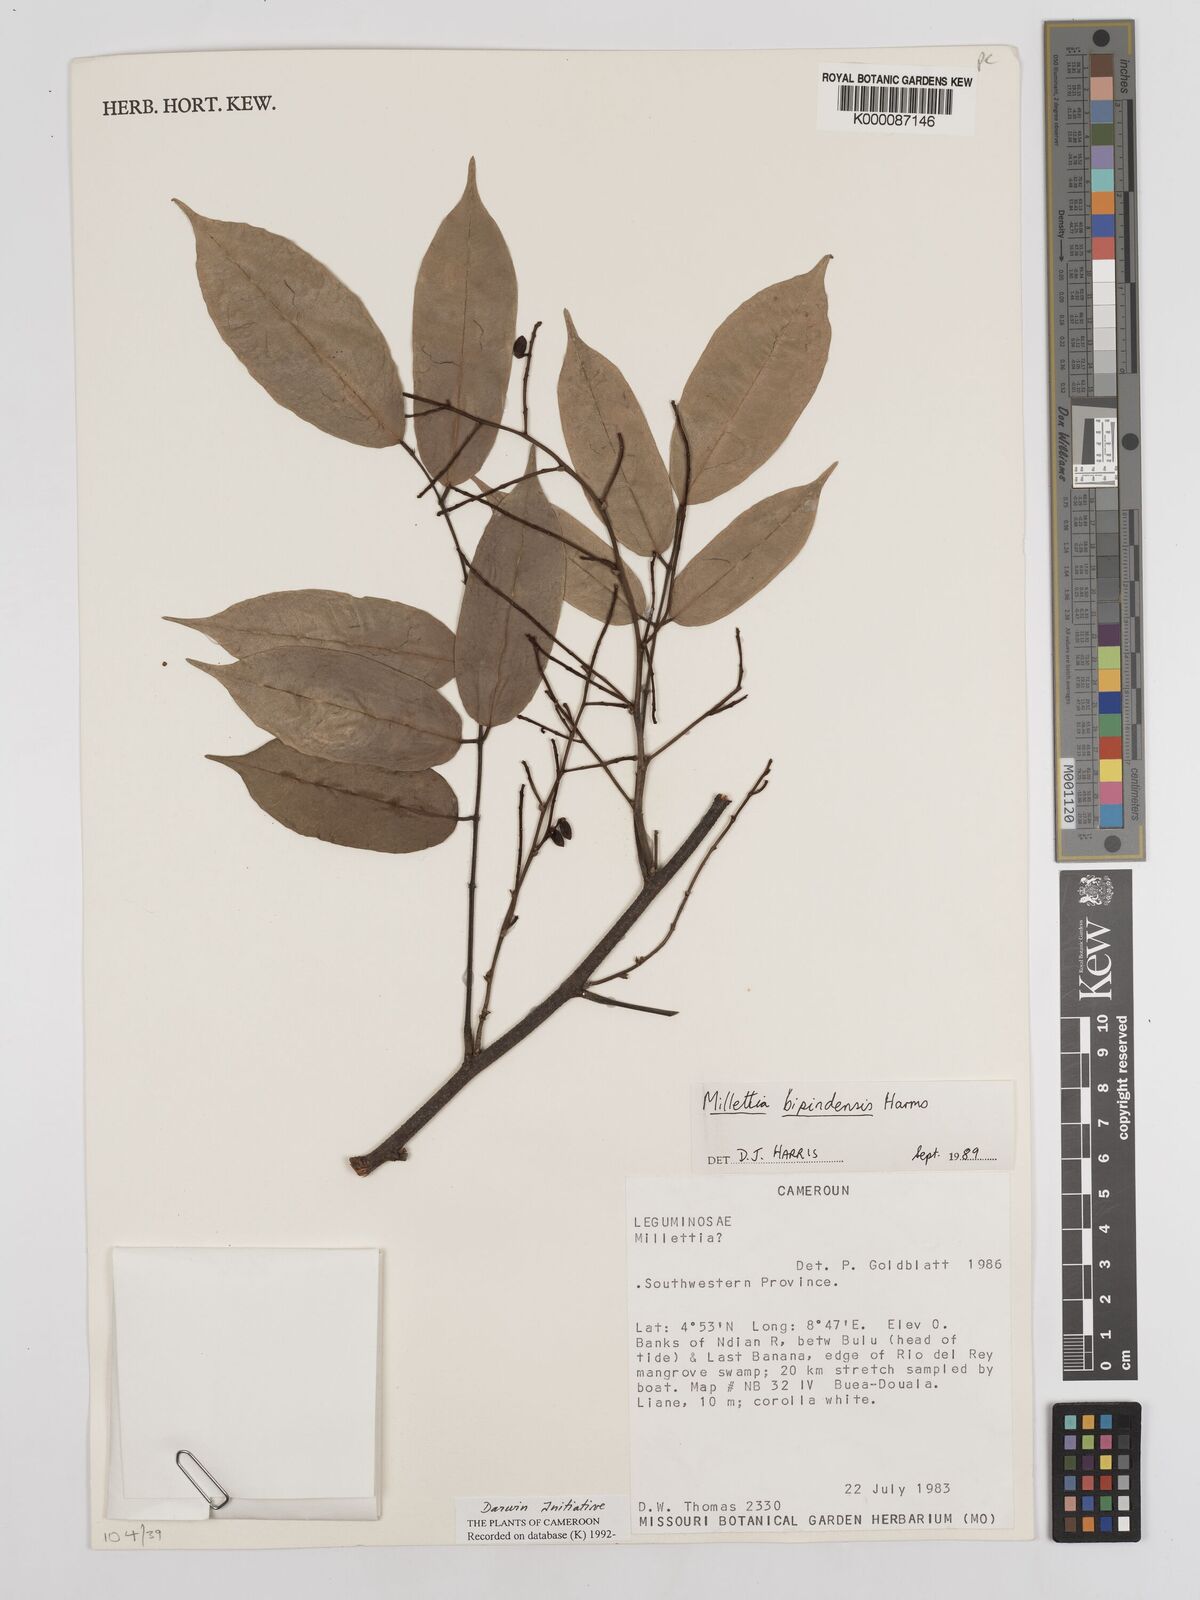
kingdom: Plantae
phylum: Tracheophyta
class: Magnoliopsida
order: Fabales
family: Fabaceae
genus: Millettia
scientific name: Millettia bipindensis
